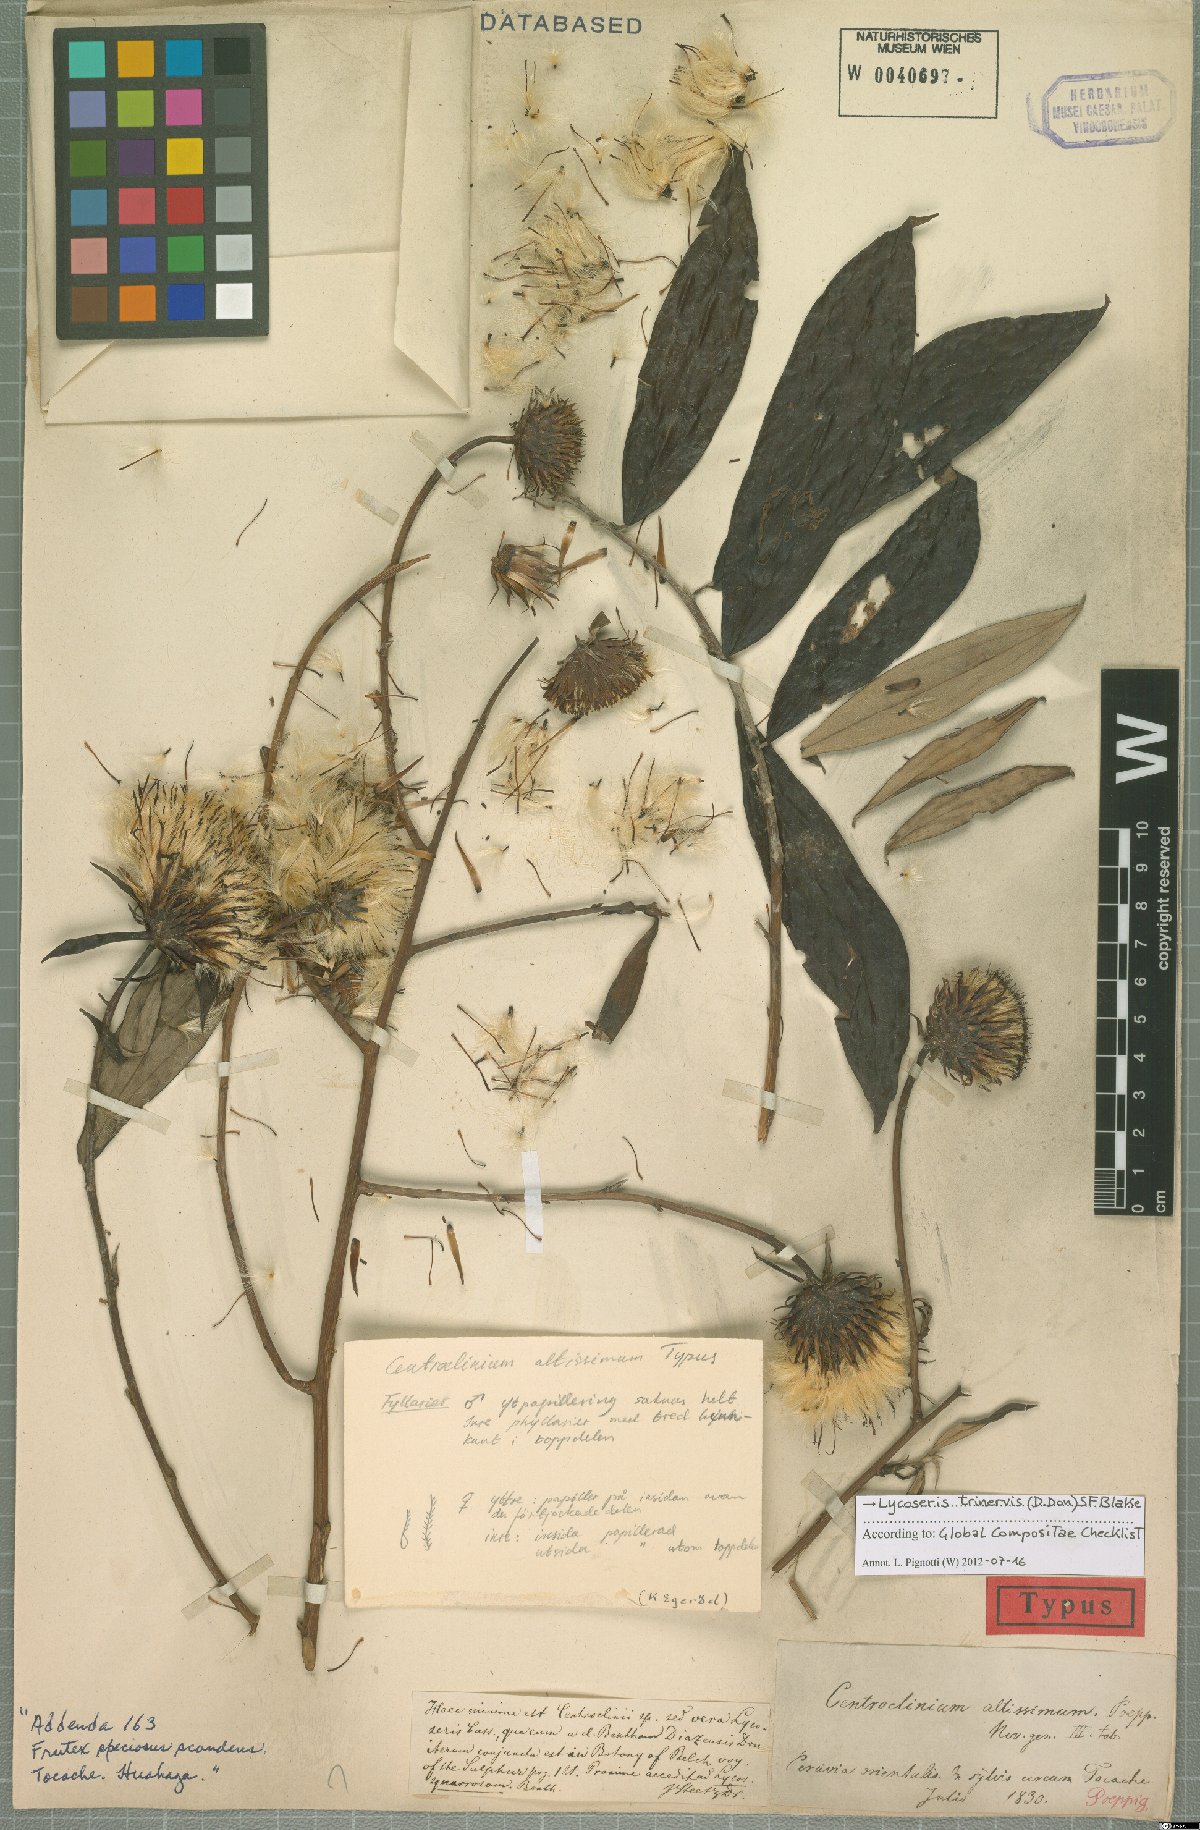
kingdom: Plantae
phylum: Tracheophyta
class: Magnoliopsida
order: Asterales
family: Asteraceae
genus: Lycoseris
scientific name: Lycoseris trinervis
